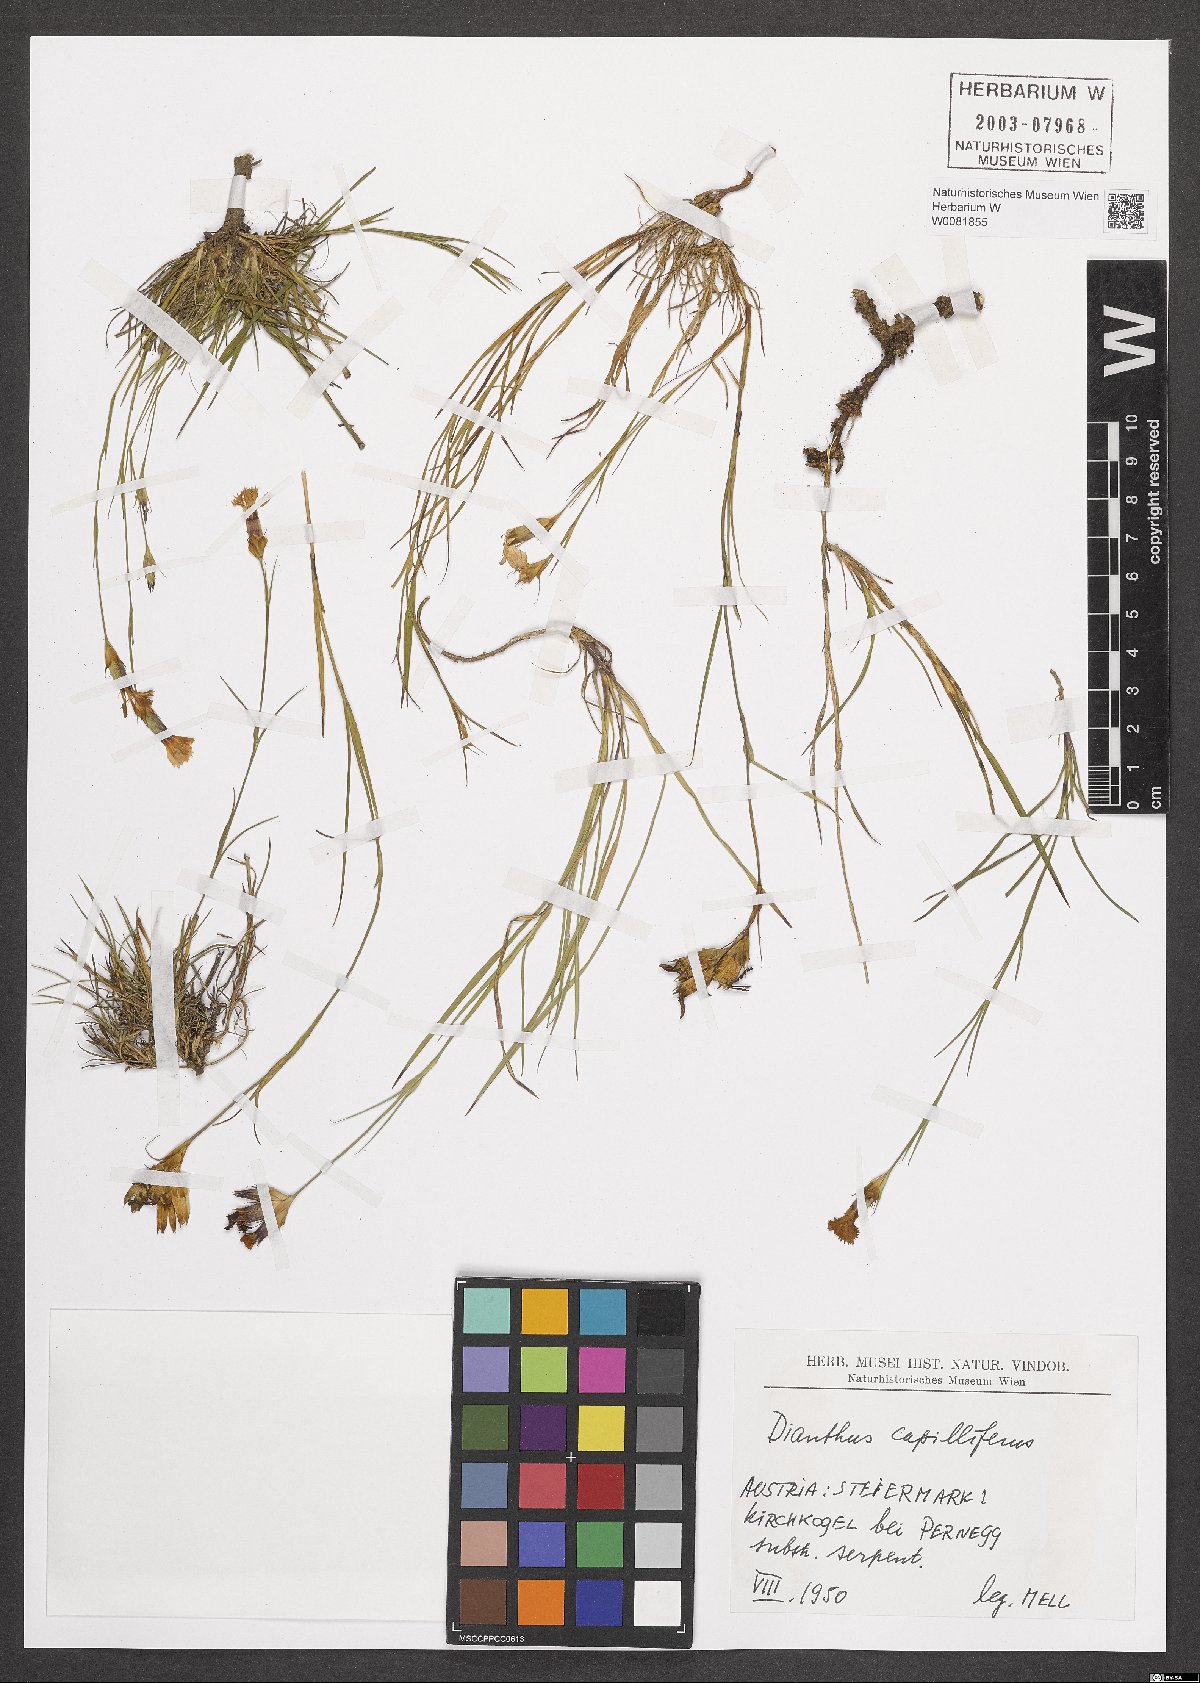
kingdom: Plantae
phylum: Tracheophyta
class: Magnoliopsida
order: Caryophyllales
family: Caryophyllaceae
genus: Dianthus
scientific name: Dianthus carthusianorum
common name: Carthusian pink
